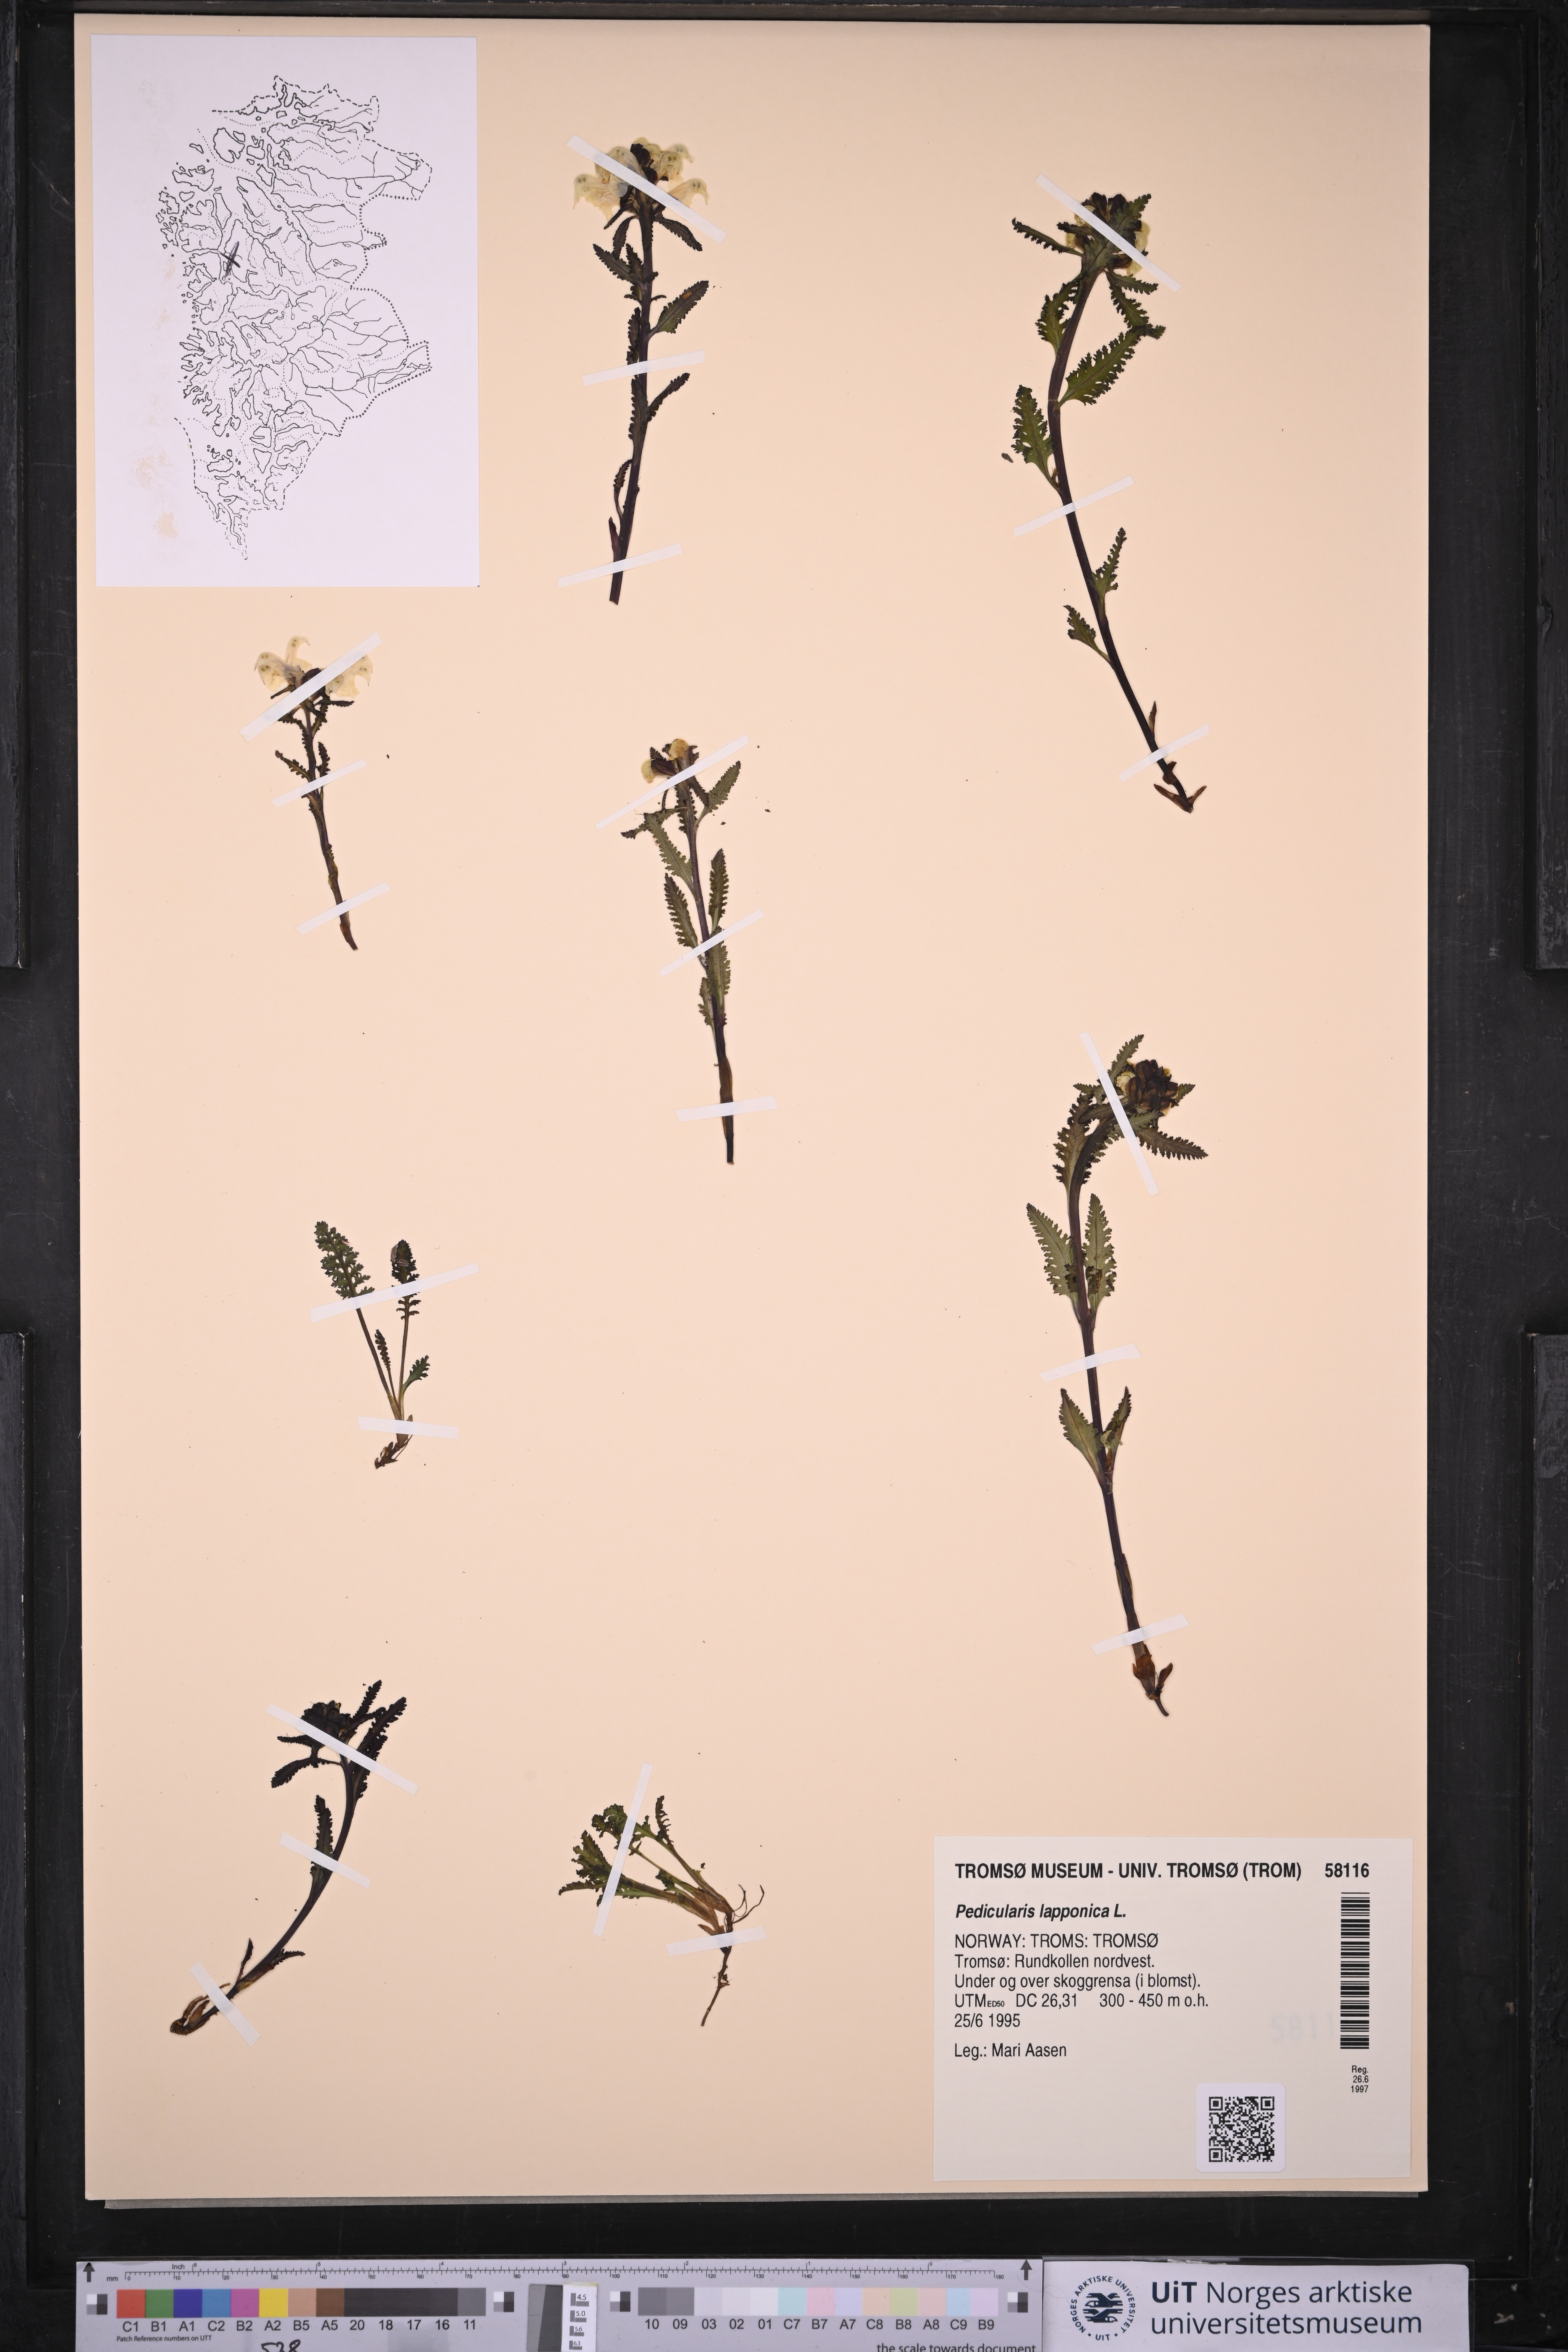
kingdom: Plantae
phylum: Tracheophyta
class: Magnoliopsida
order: Lamiales
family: Orobanchaceae
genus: Pedicularis
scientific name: Pedicularis lapponica
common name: Lapland lousewort
